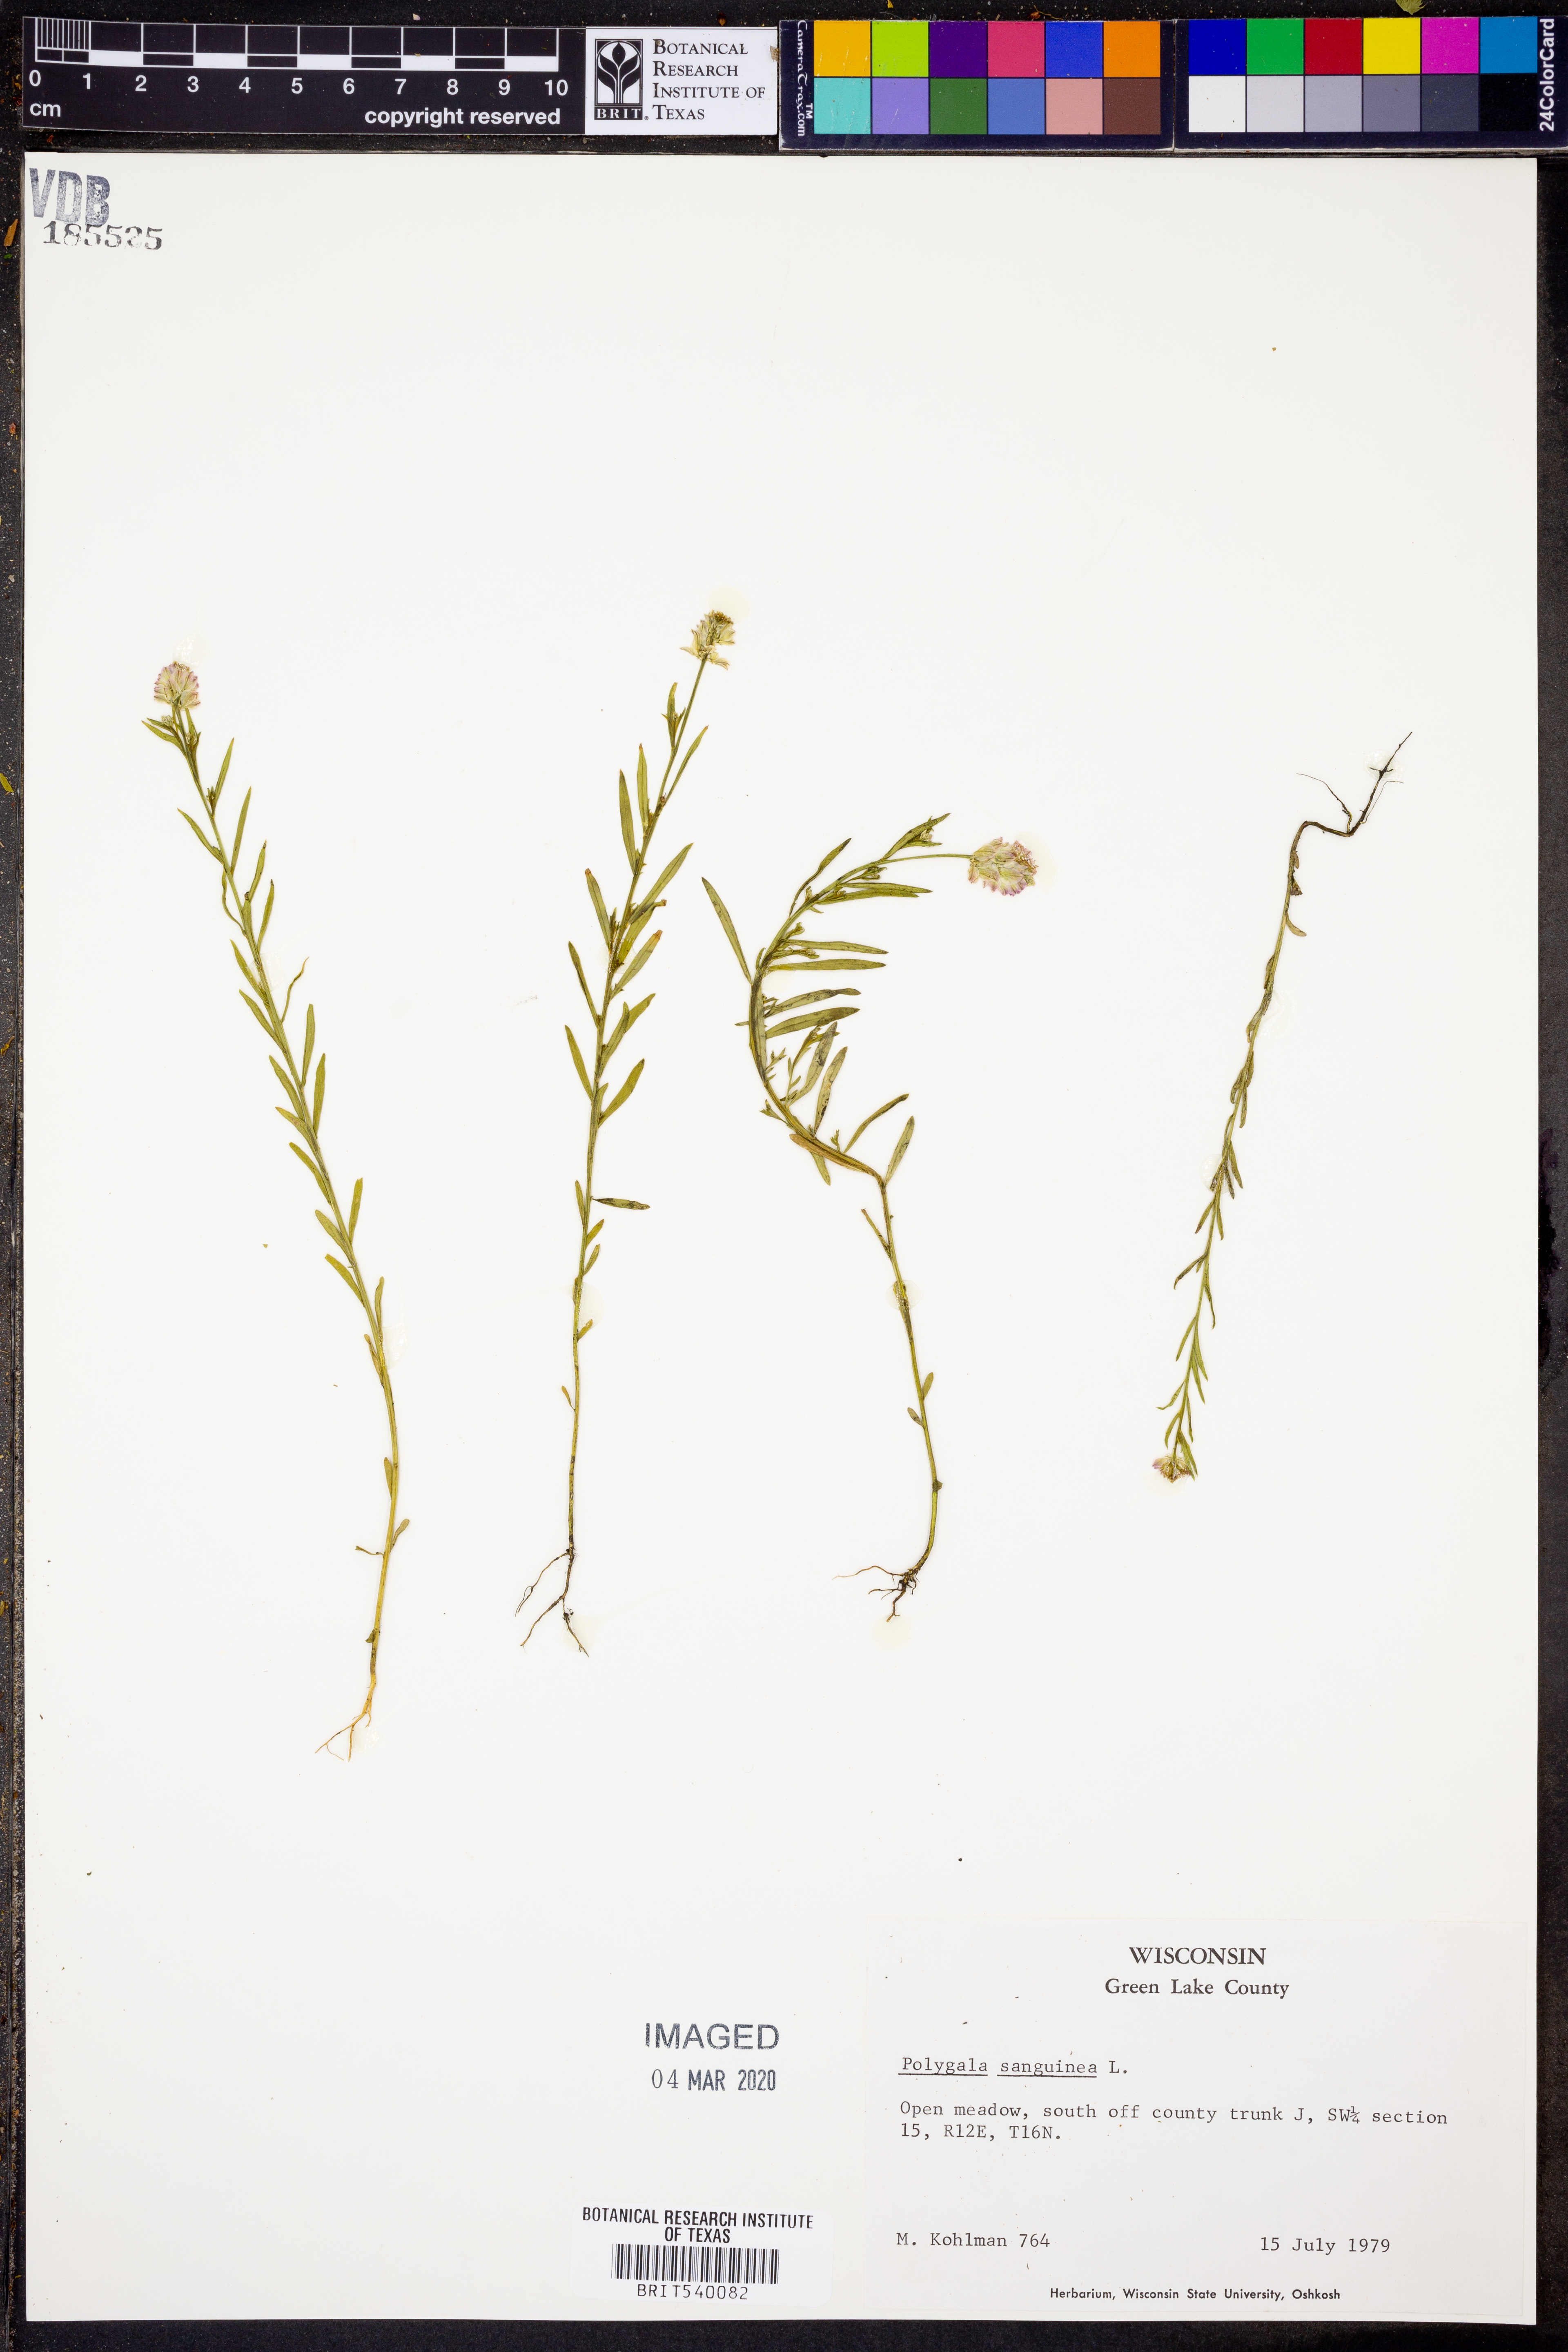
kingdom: Plantae
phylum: Tracheophyta
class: Magnoliopsida
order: Fabales
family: Polygalaceae
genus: Polygala
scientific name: Polygala sanguinea
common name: Blood milkwort
